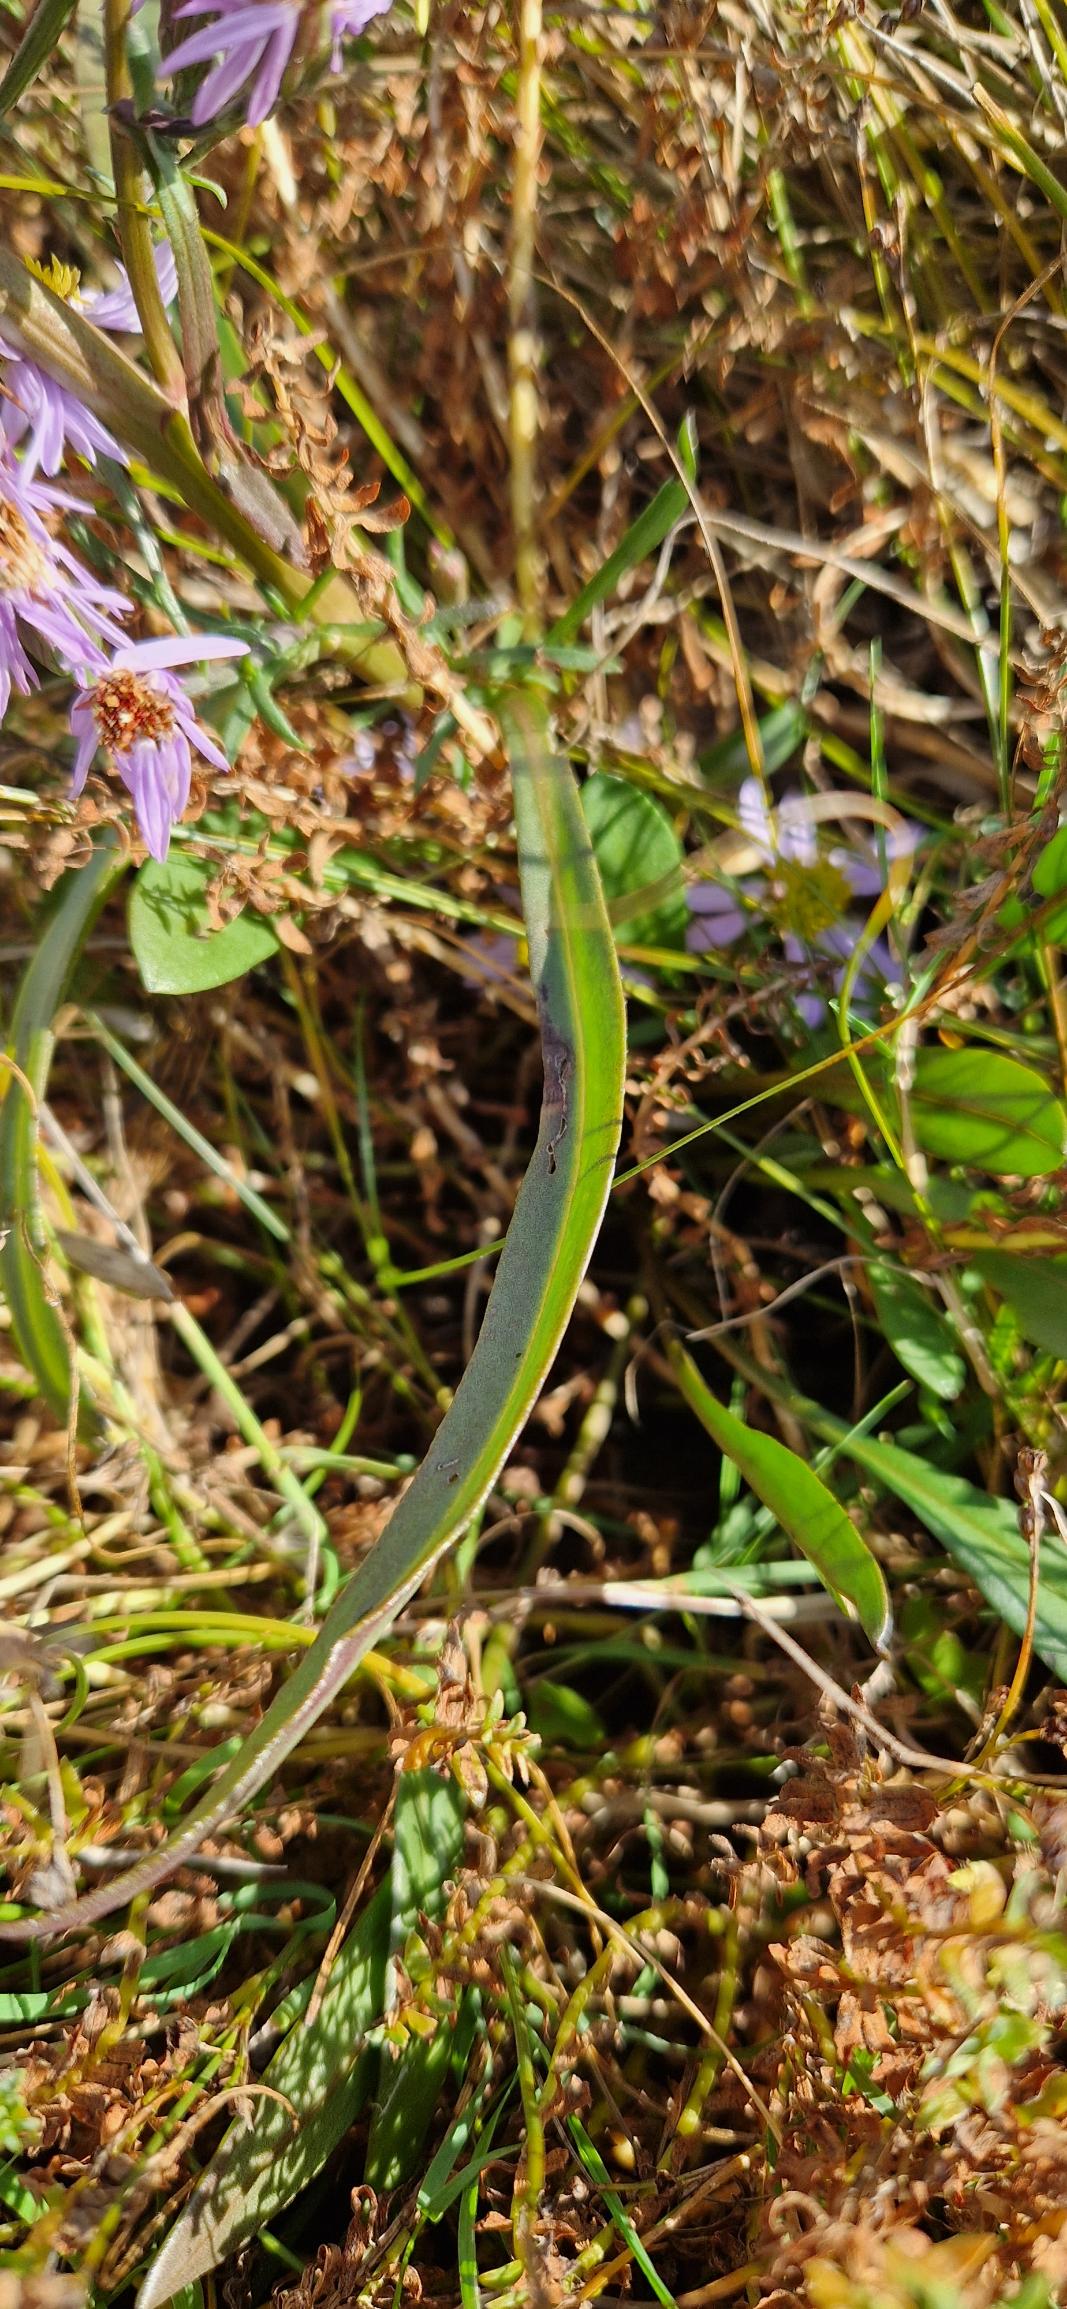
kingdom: Plantae
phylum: Tracheophyta
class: Magnoliopsida
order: Asterales
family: Asteraceae
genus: Tripolium
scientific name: Tripolium pannonicum
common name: Strandasters
